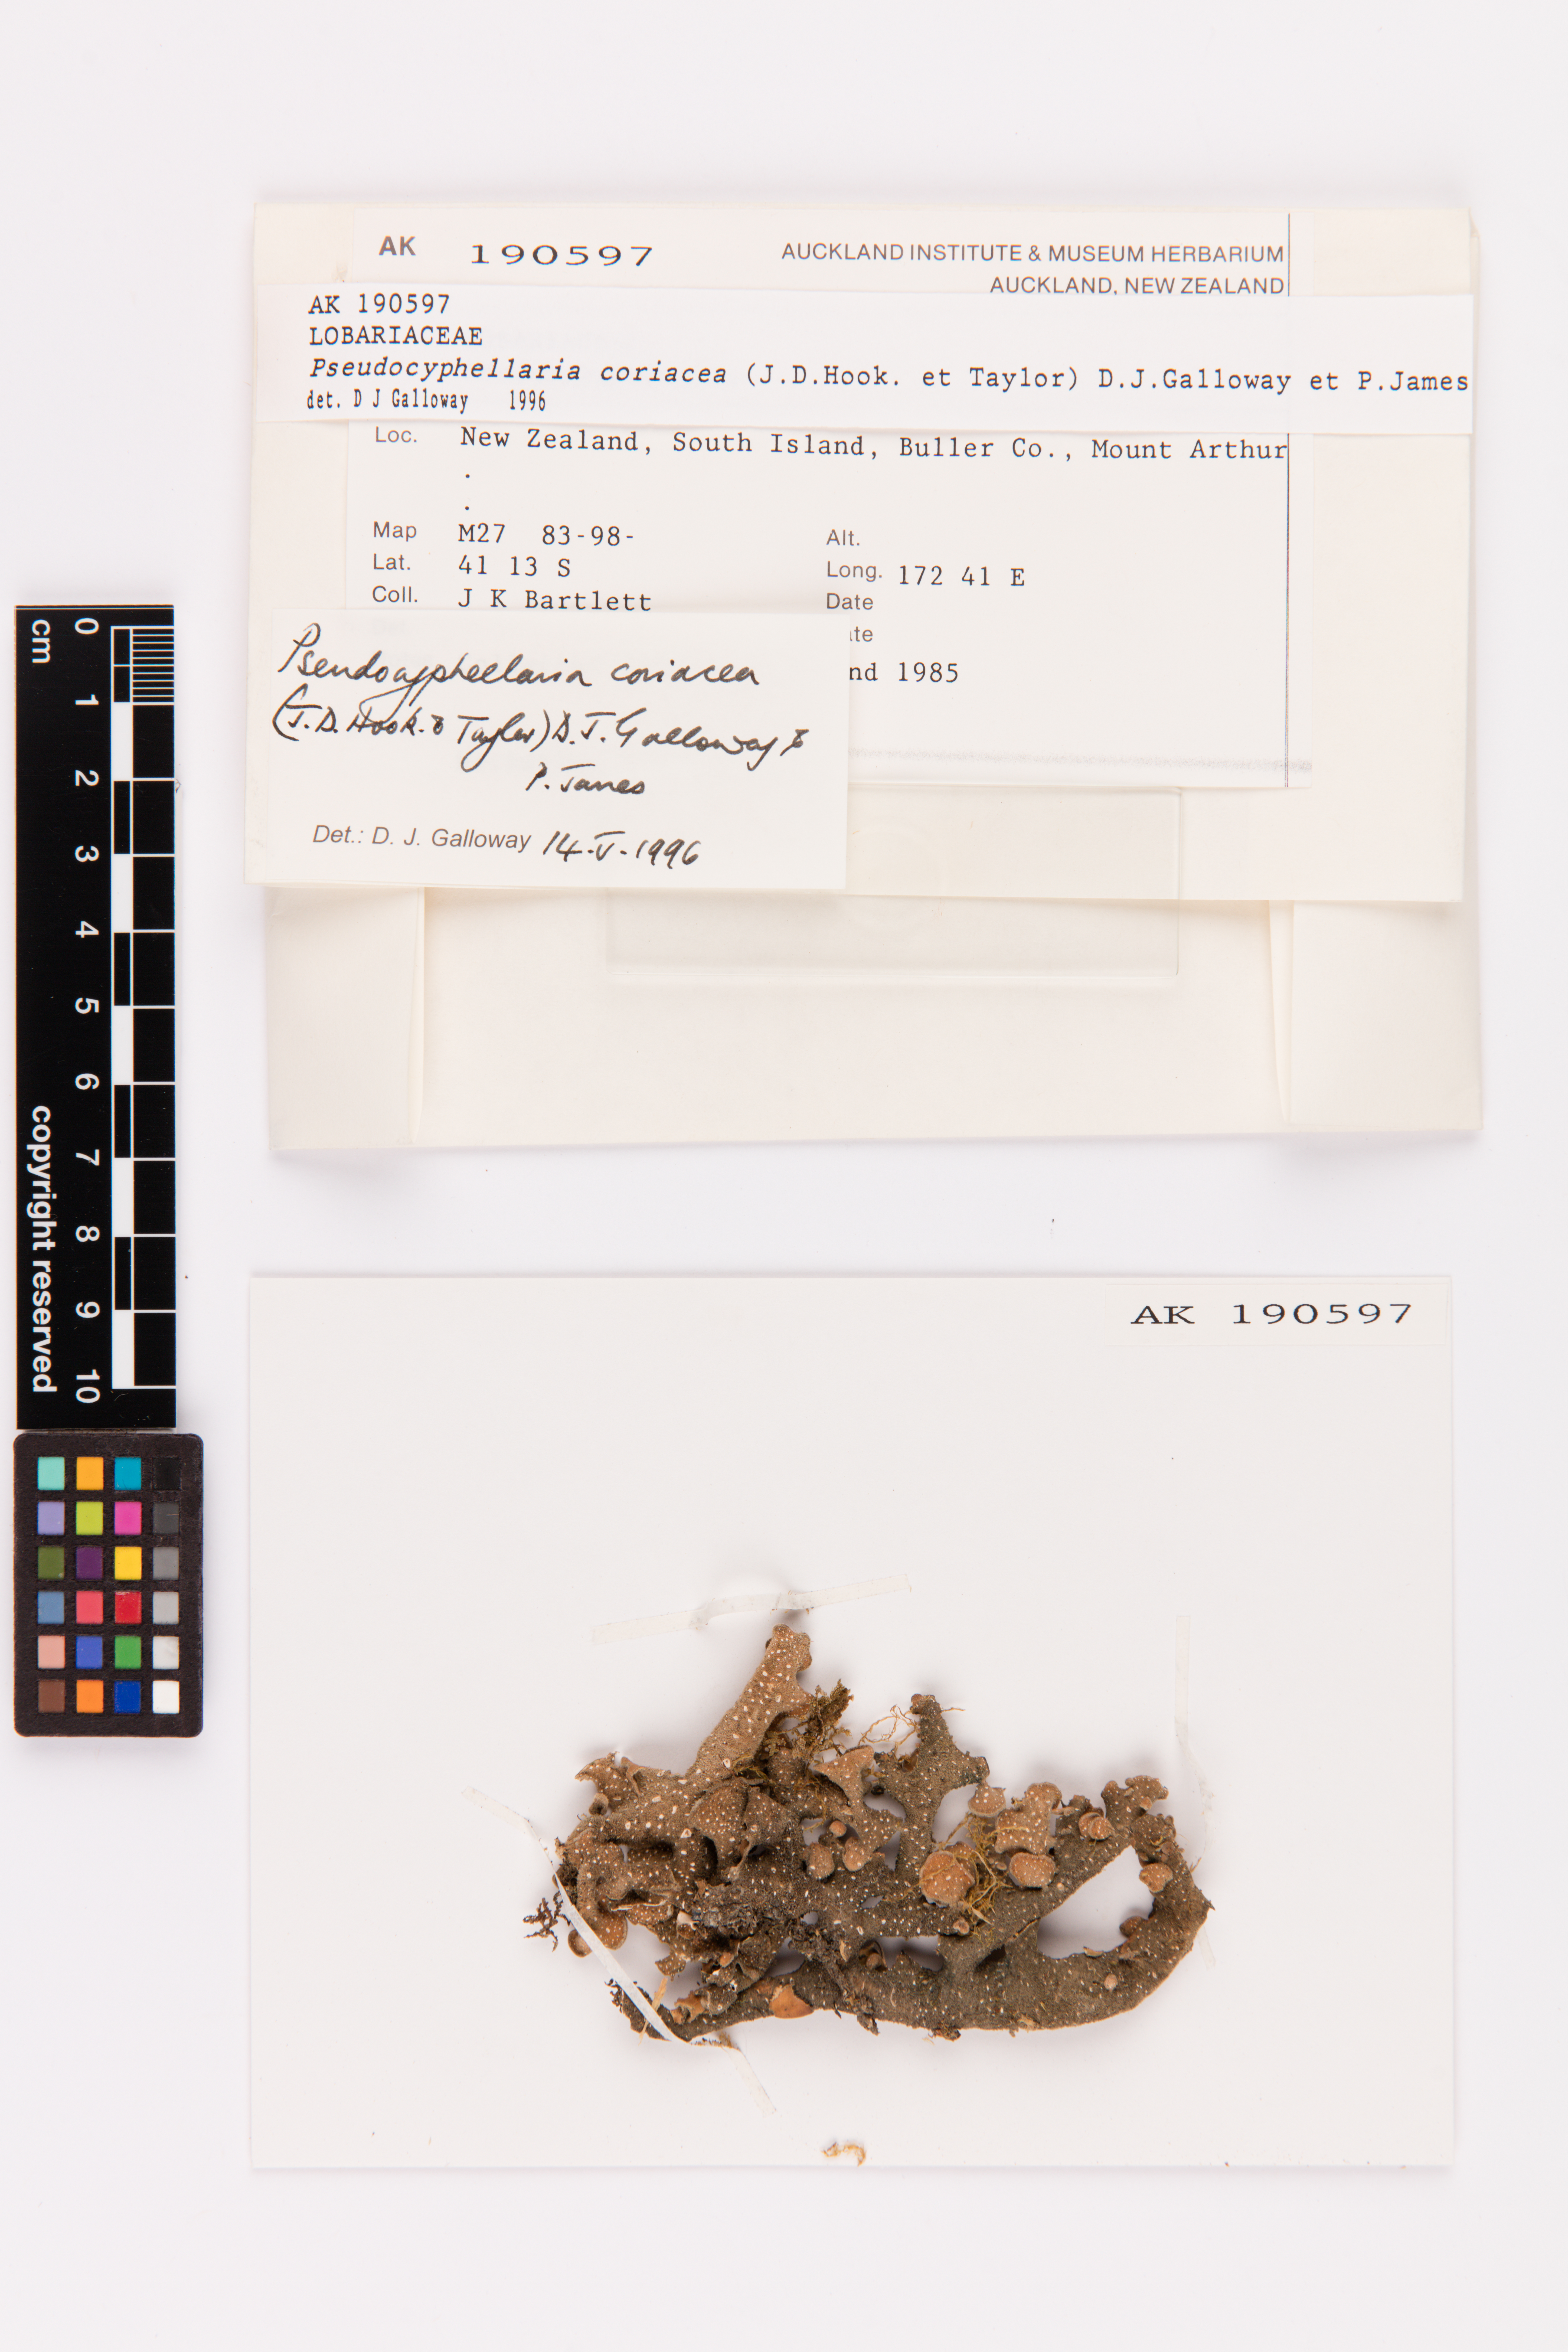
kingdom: Fungi
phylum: Ascomycota
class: Lecanoromycetes
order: Peltigerales
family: Lobariaceae
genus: Pseudocyphellaria
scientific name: Pseudocyphellaria coriacea
